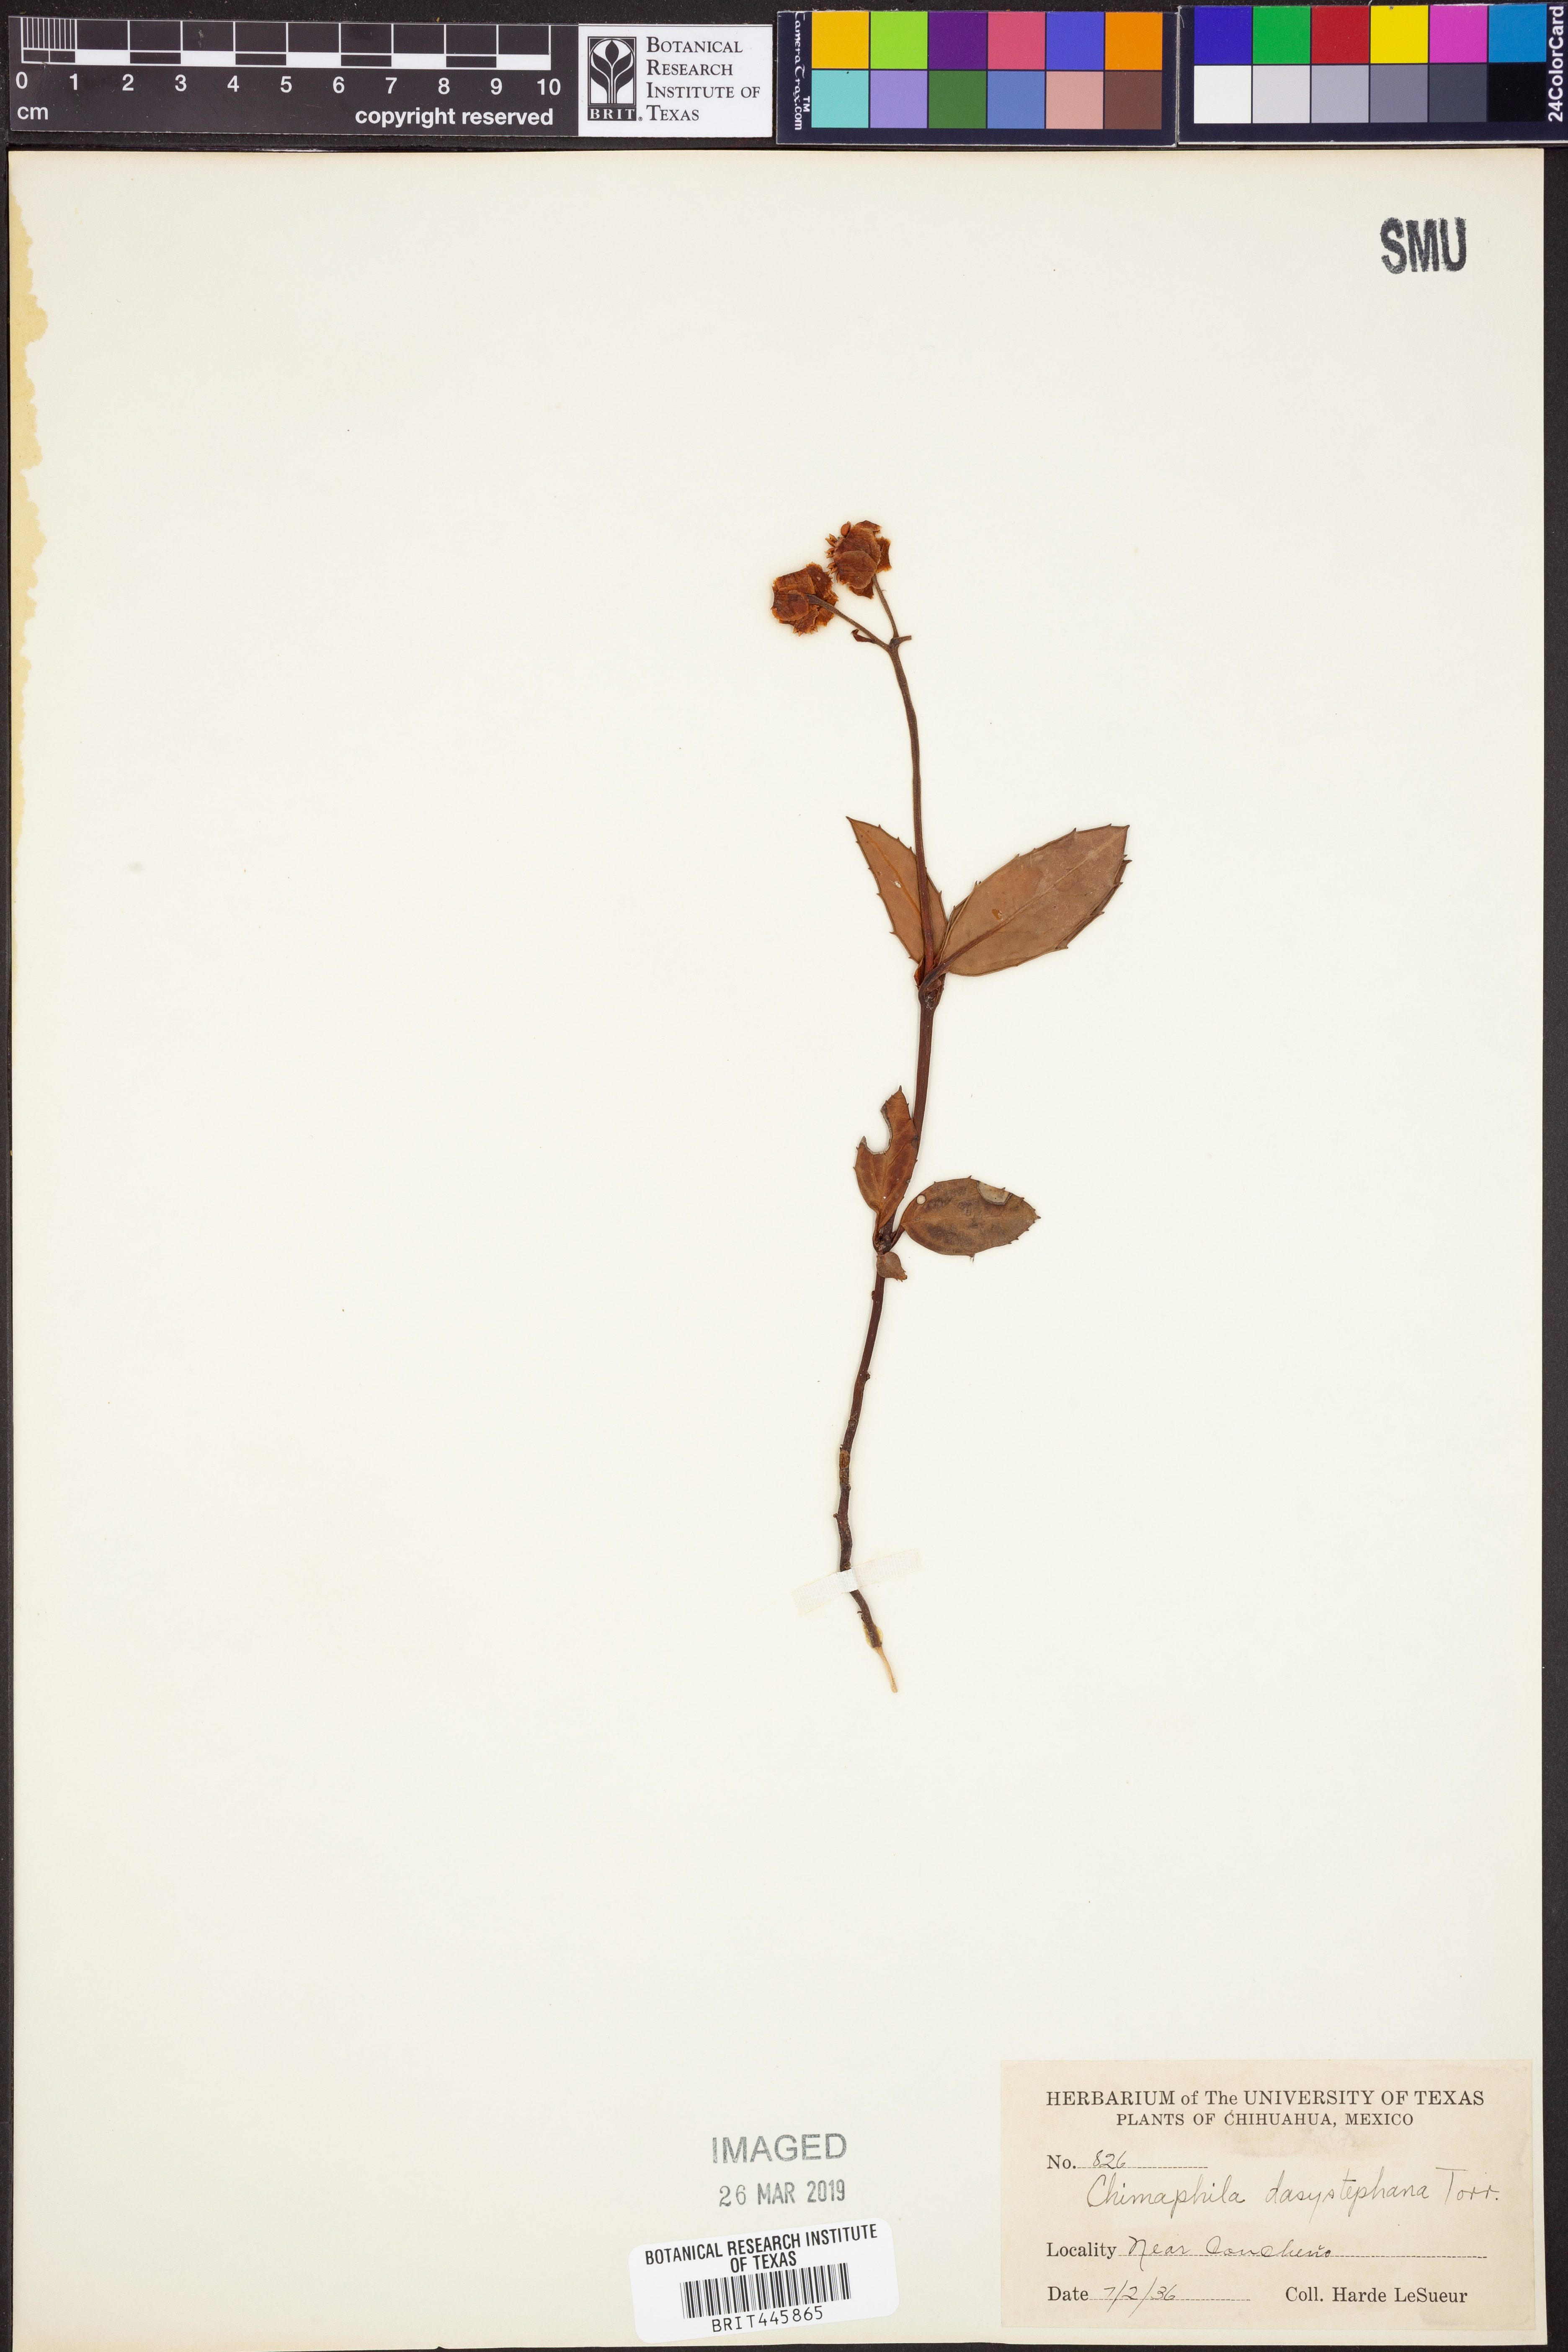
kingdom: Plantae
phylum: Tracheophyta
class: Magnoliopsida
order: Ericales
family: Ericaceae
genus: Chimaphila
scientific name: Chimaphila maculata
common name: Spotted pipsissewa
